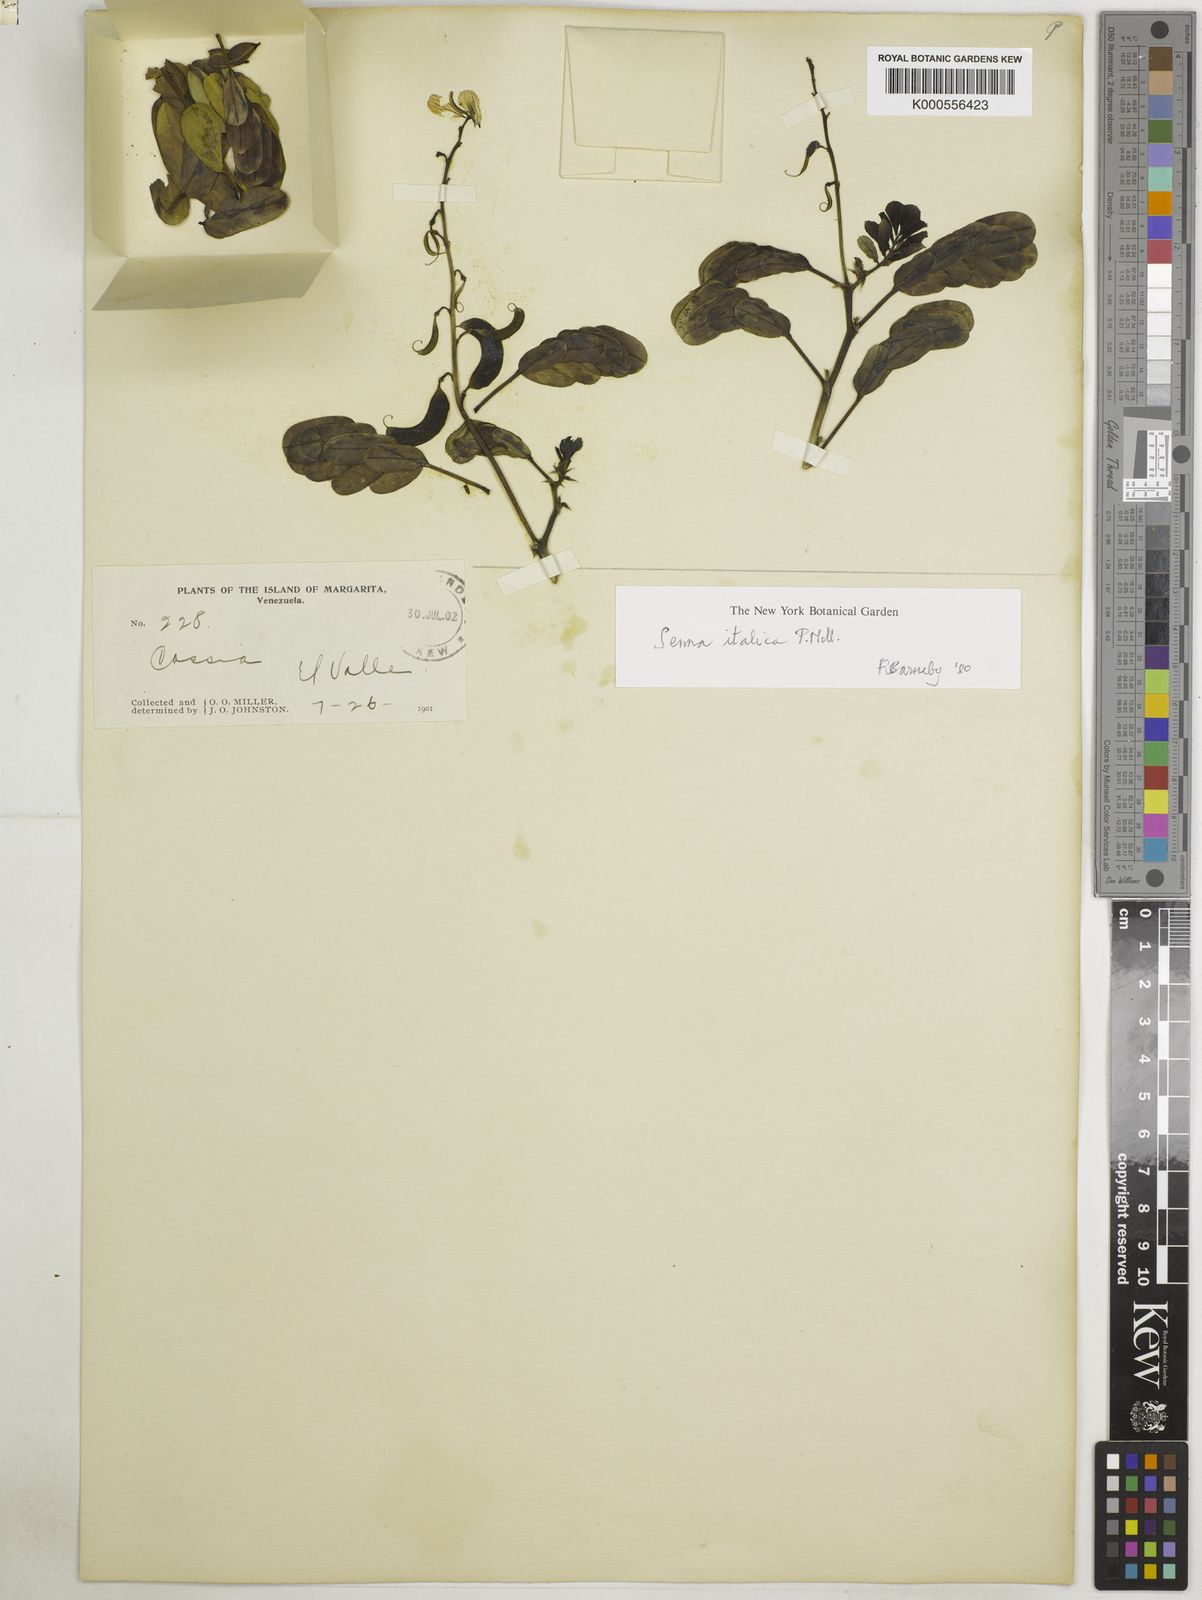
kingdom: Plantae
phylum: Tracheophyta
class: Magnoliopsida
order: Fabales
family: Fabaceae
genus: Senna
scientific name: Senna
